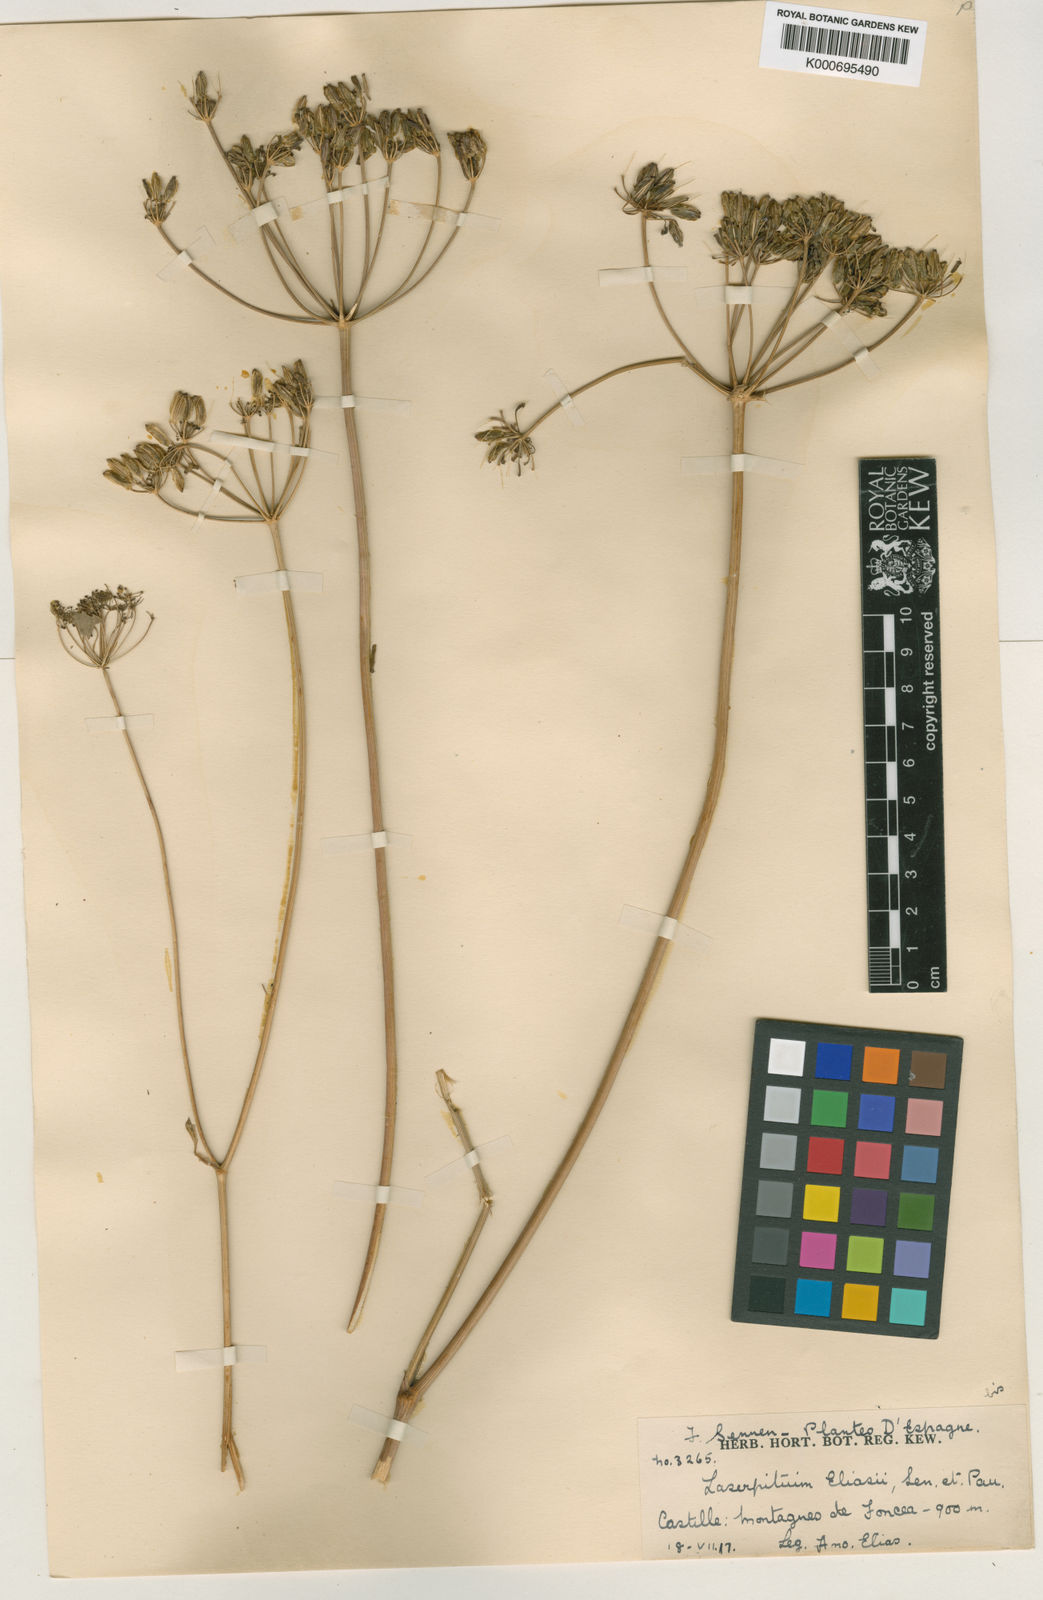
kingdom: Plantae
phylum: Tracheophyta
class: Magnoliopsida
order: Apiales
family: Apiaceae
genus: Thapsia
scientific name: Thapsia eliasii
